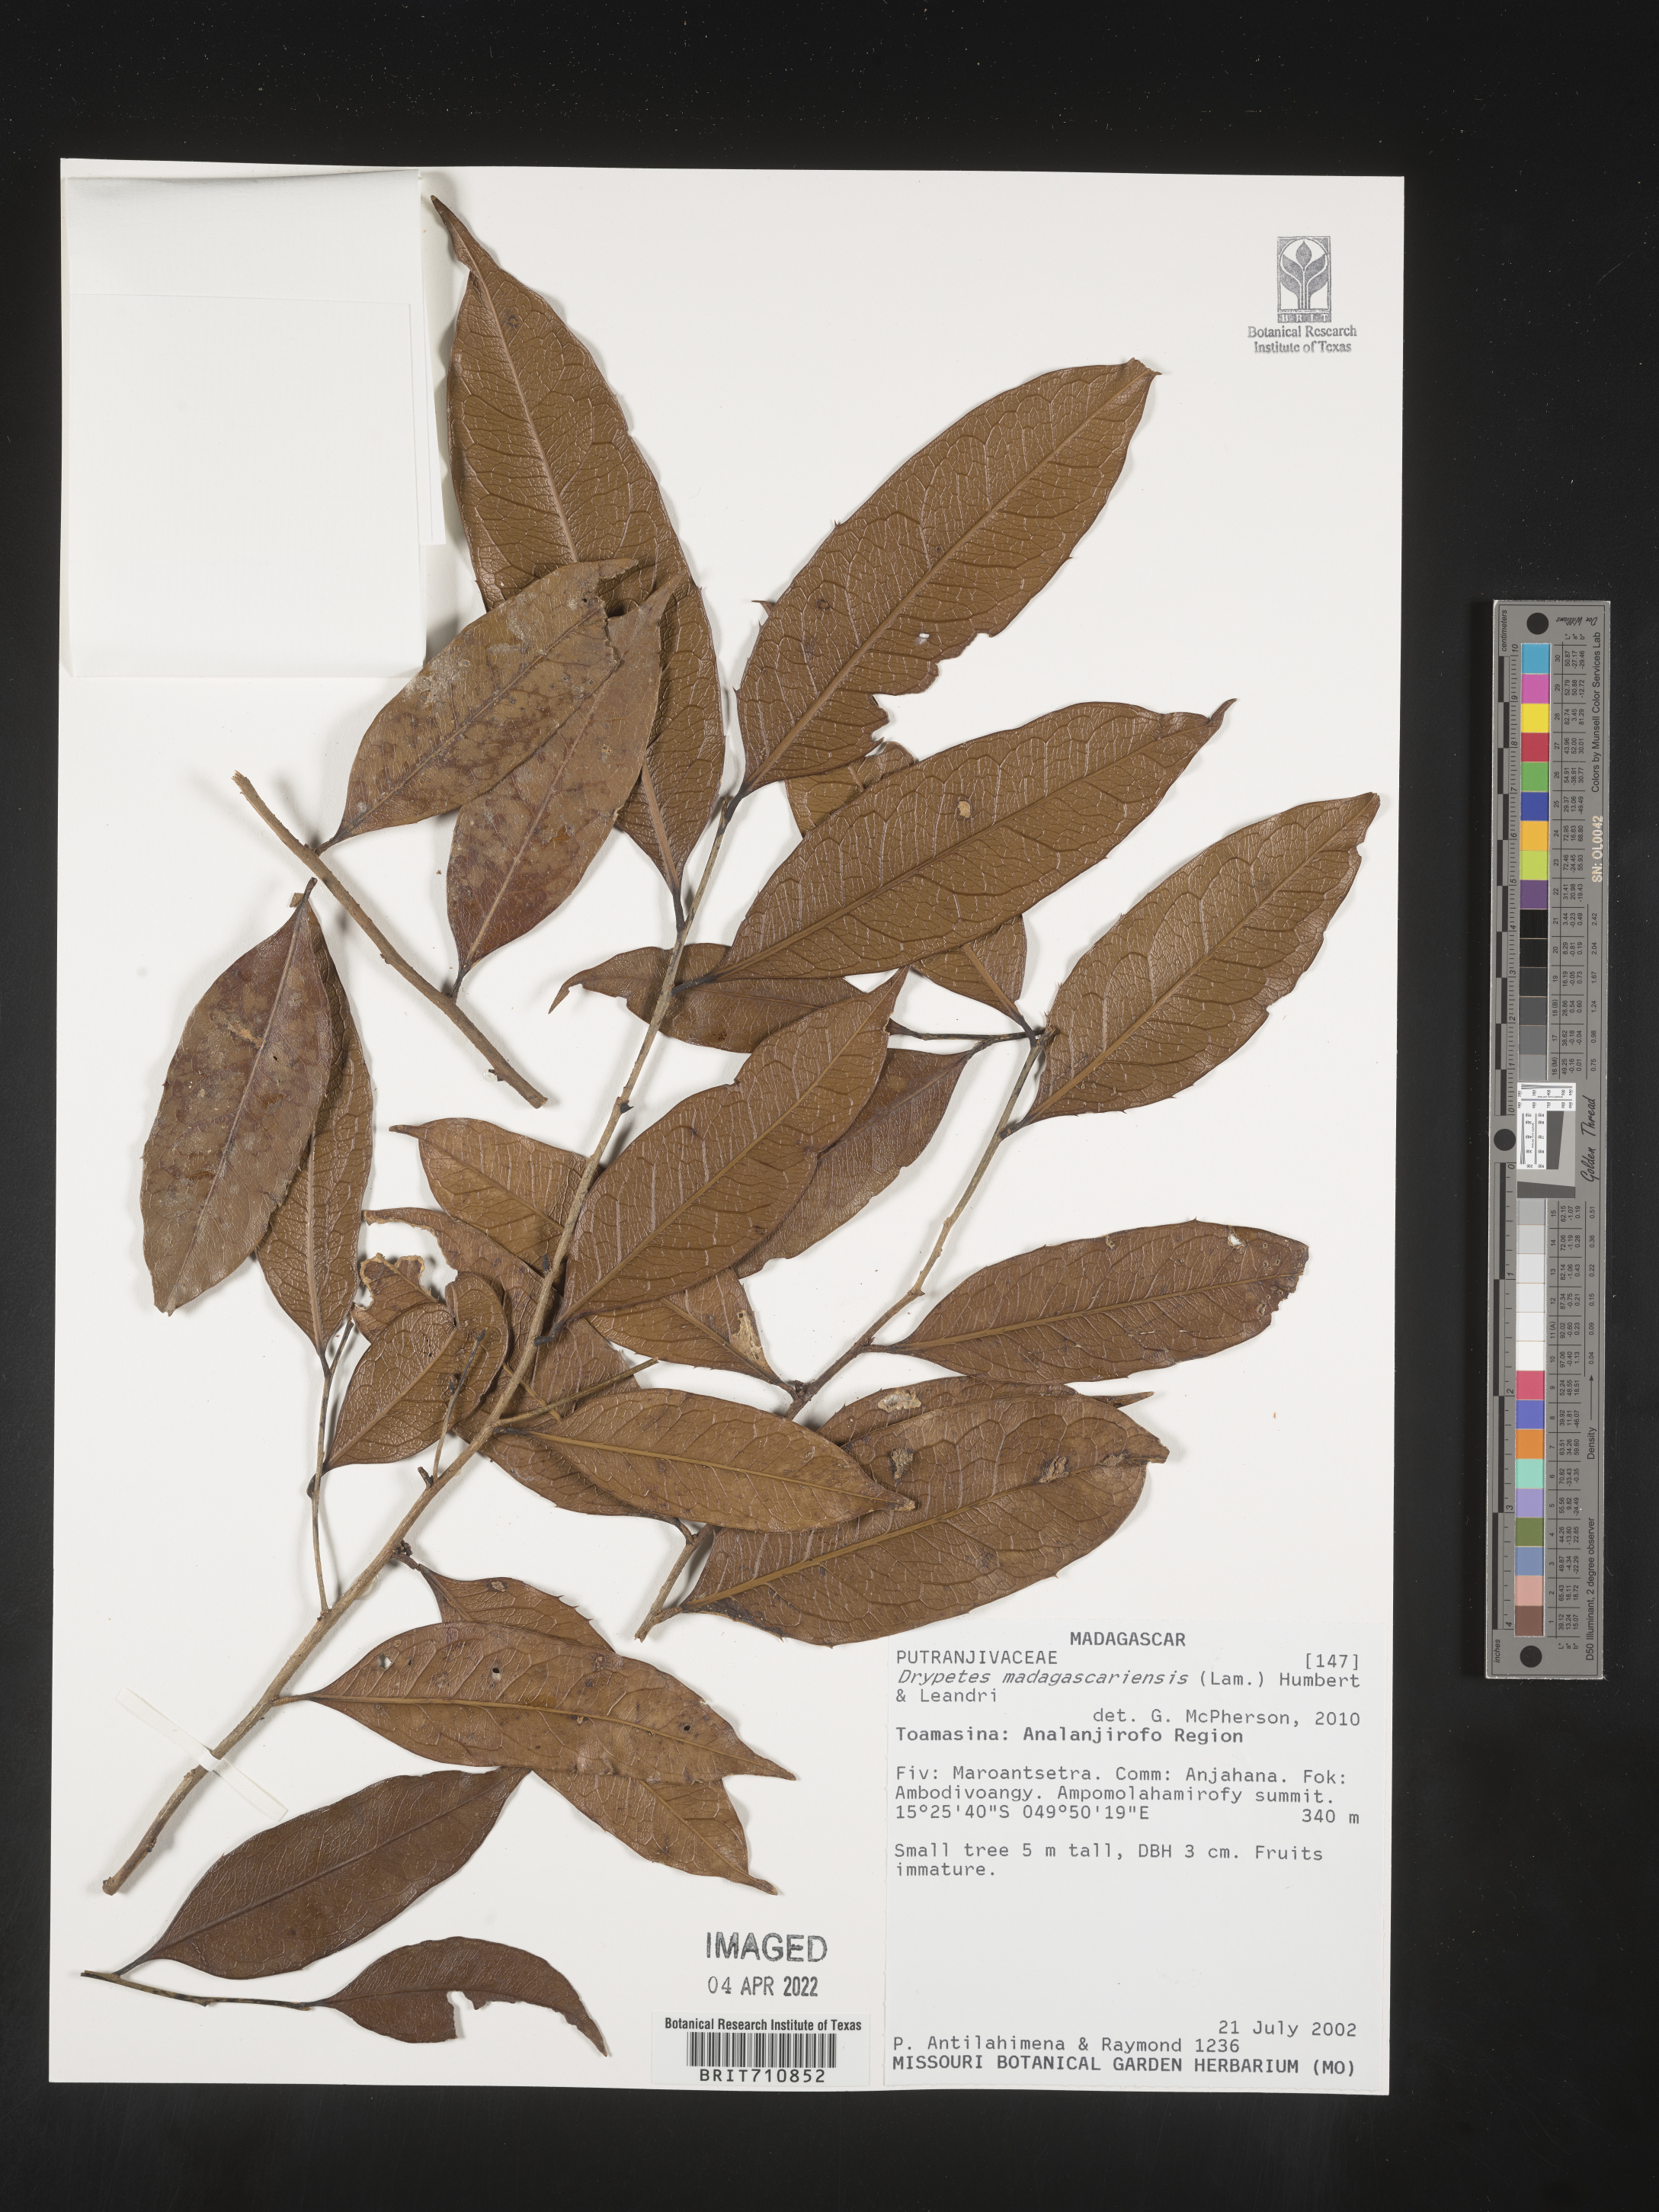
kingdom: Plantae
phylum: Tracheophyta
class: Magnoliopsida
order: Malpighiales
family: Putranjivaceae
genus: Drypetes
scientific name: Drypetes
